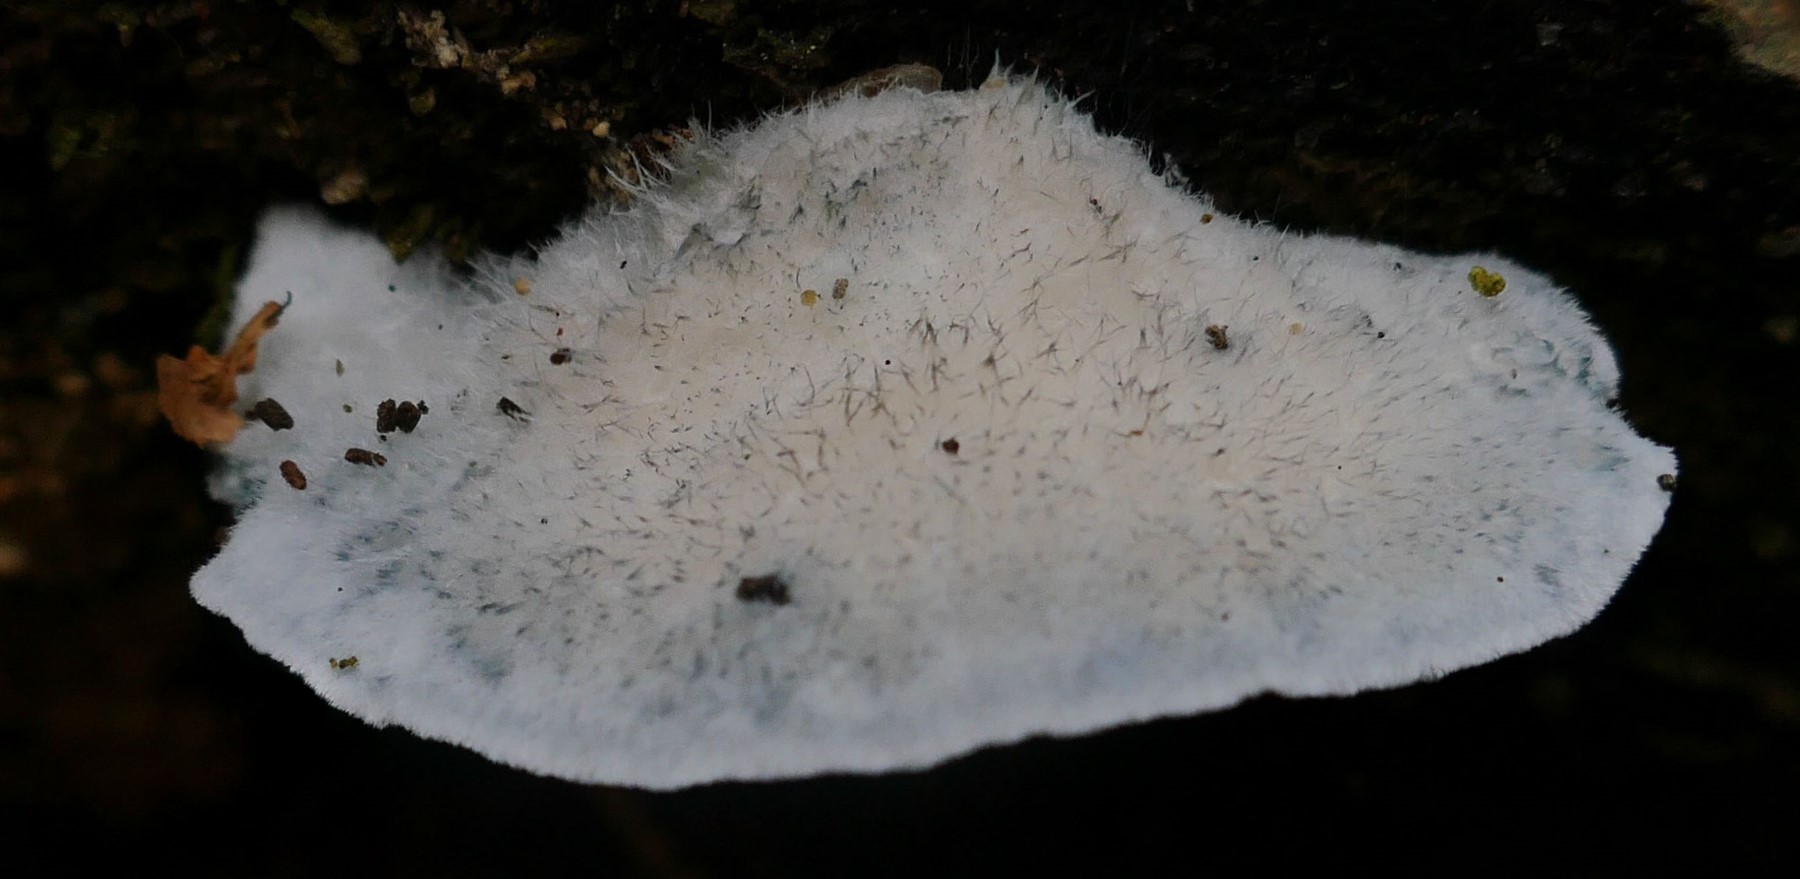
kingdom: Fungi
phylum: Basidiomycota
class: Agaricomycetes
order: Polyporales
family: Polyporaceae
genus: Cyanosporus
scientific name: Cyanosporus caesius
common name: blålig kødporesvamp
